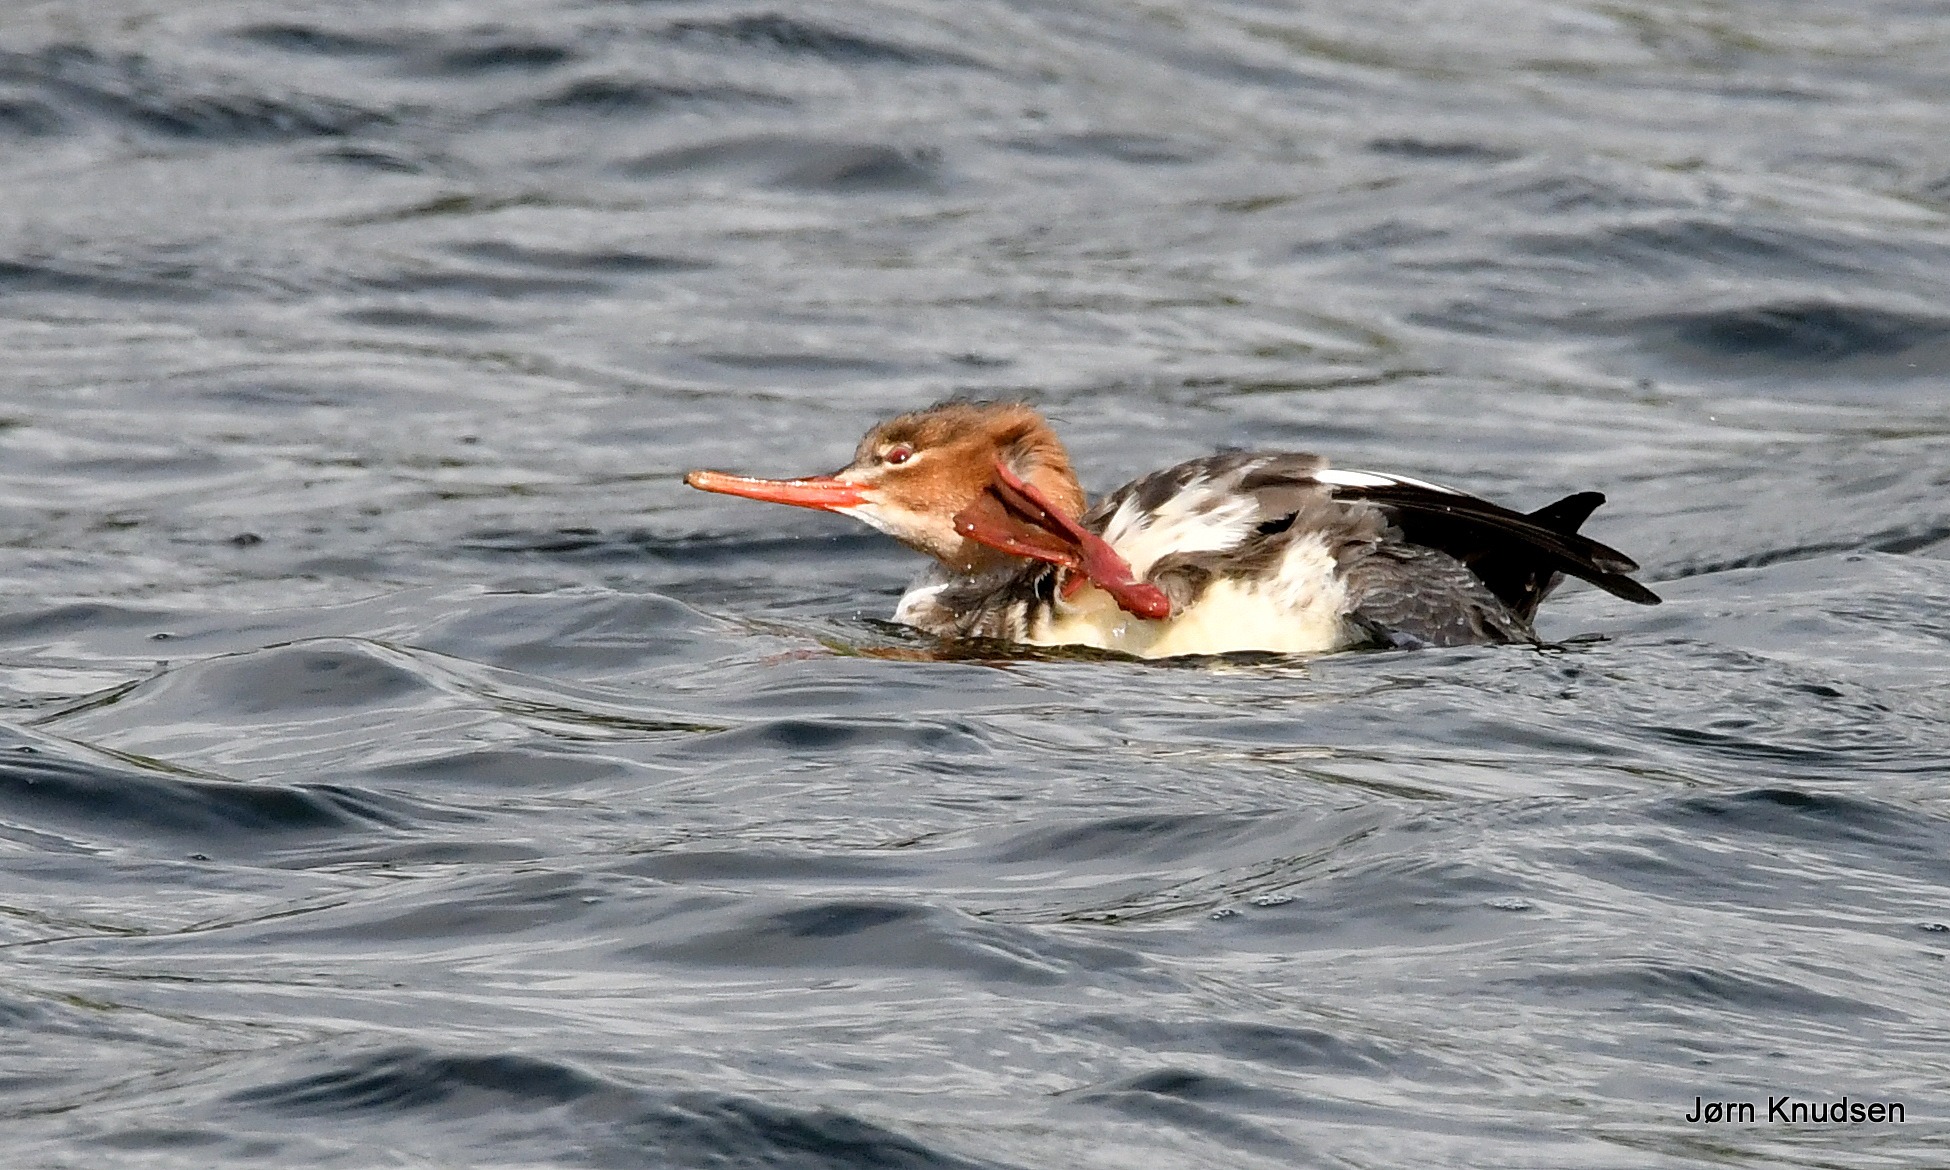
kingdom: Animalia
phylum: Chordata
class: Aves
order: Anseriformes
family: Anatidae
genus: Mergus
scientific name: Mergus serrator
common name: Toppet skallesluger
